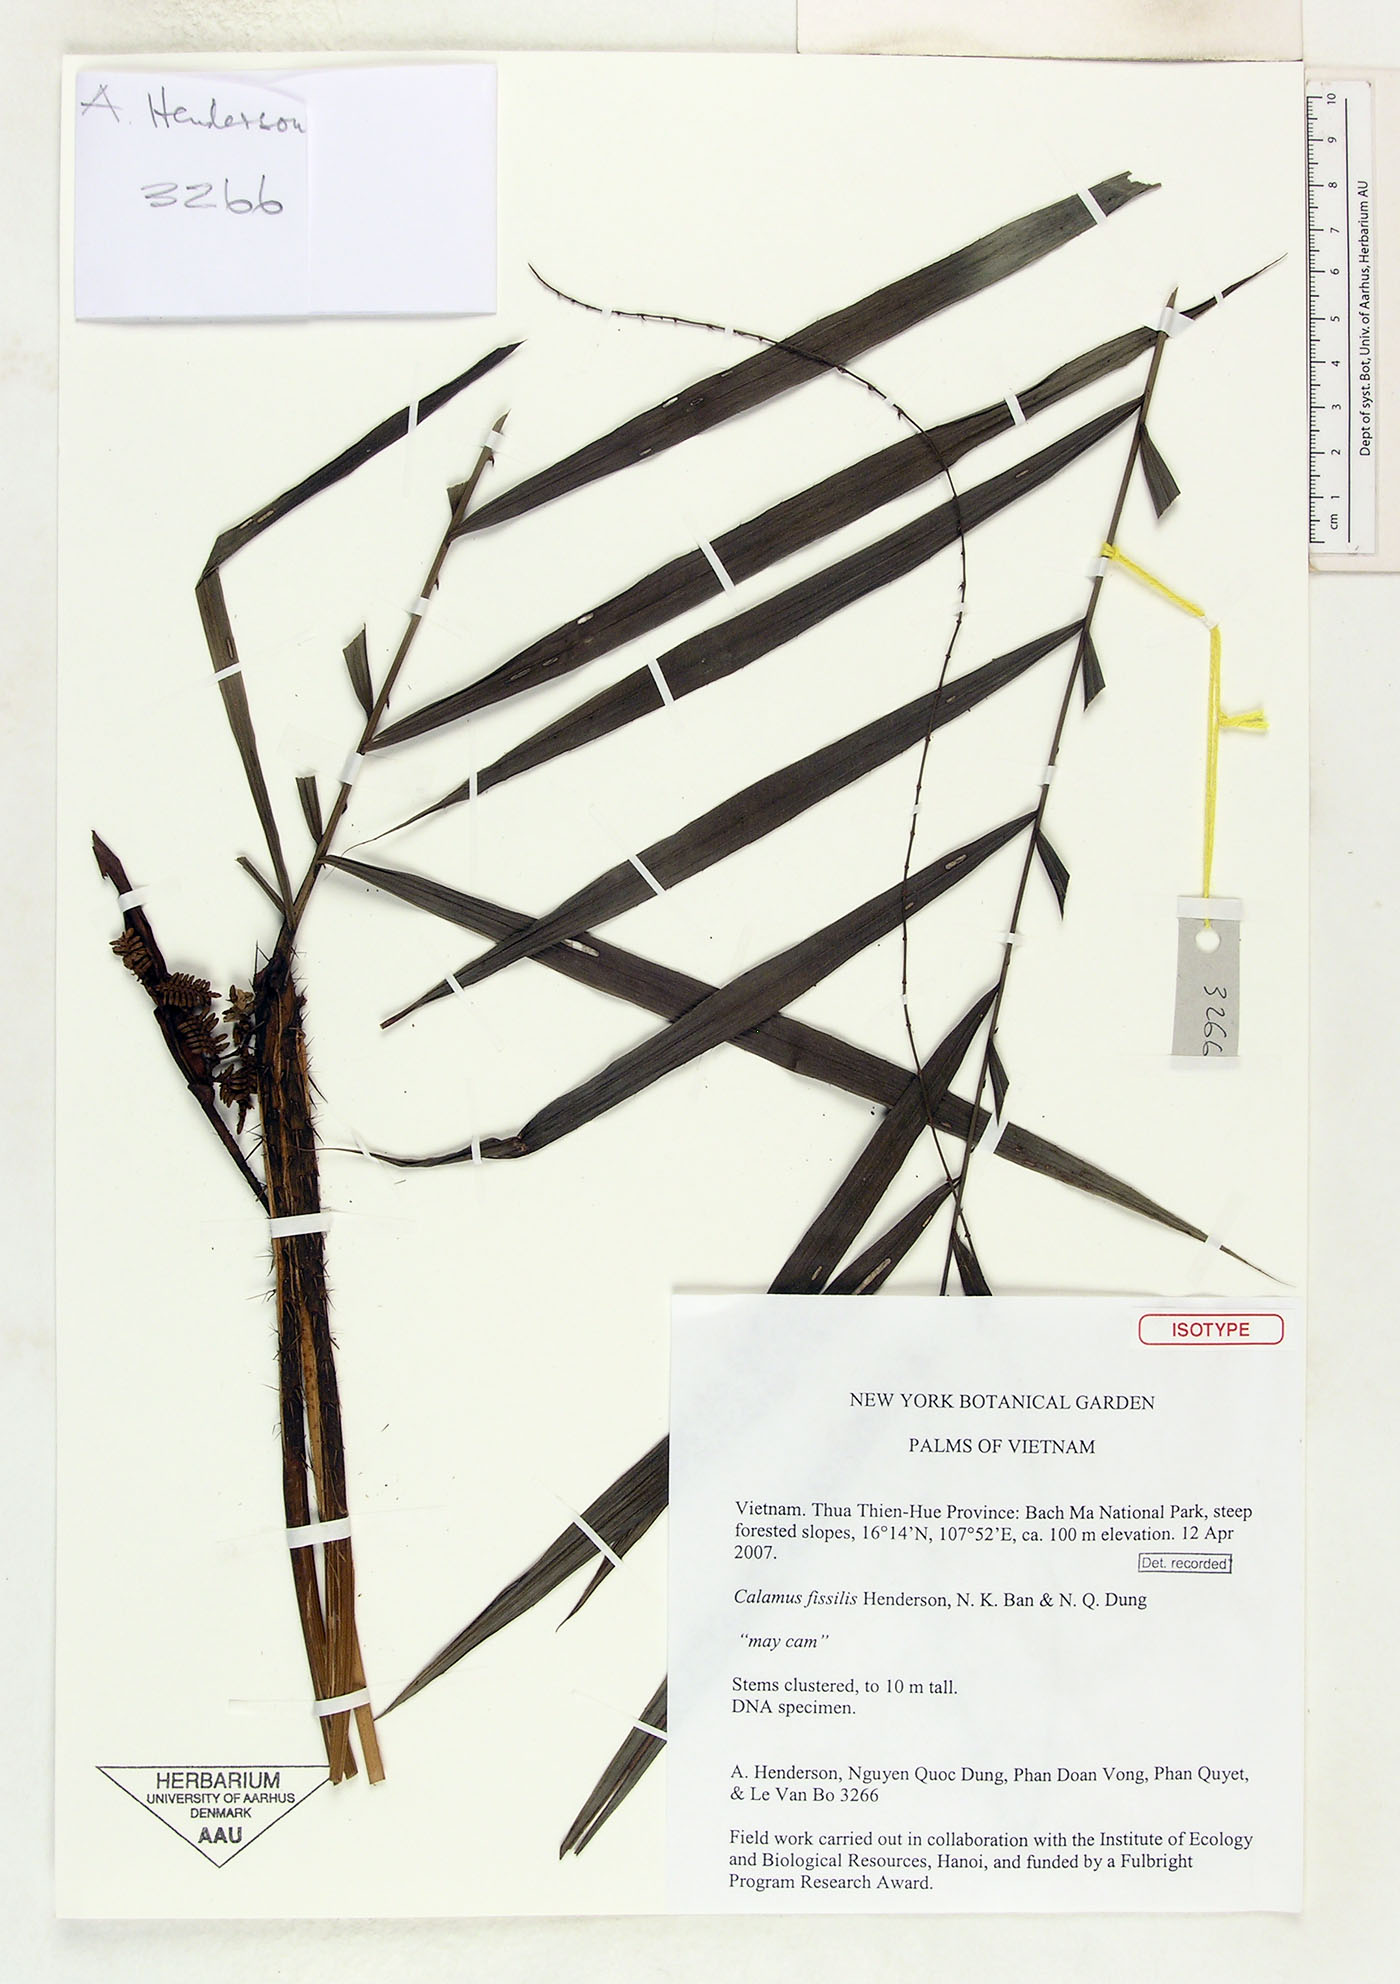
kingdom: Plantae
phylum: Tracheophyta
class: Liliopsida
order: Arecales
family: Arecaceae
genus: Calamus
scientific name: Calamus fissilis
